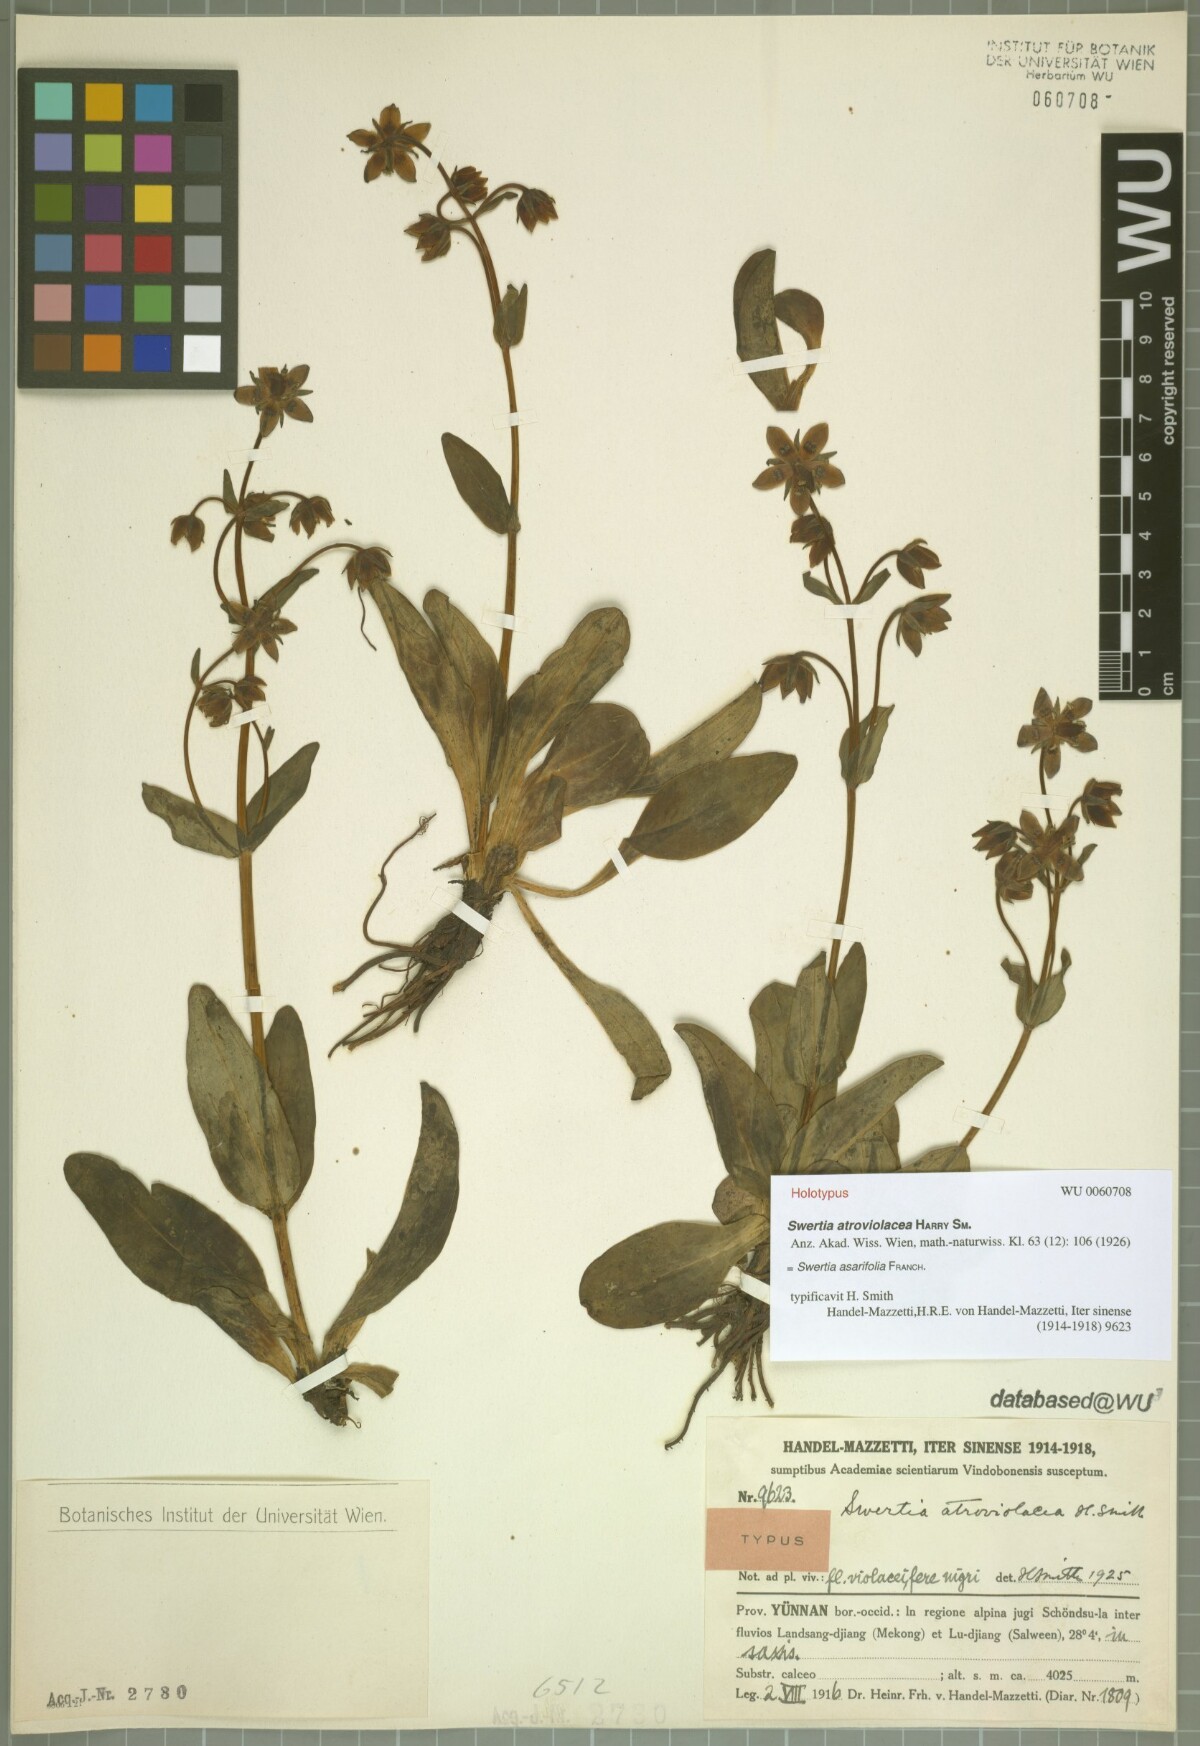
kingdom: Plantae
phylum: Tracheophyta
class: Magnoliopsida
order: Gentianales
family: Gentianaceae
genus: Swertia
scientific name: Swertia asarifolia
